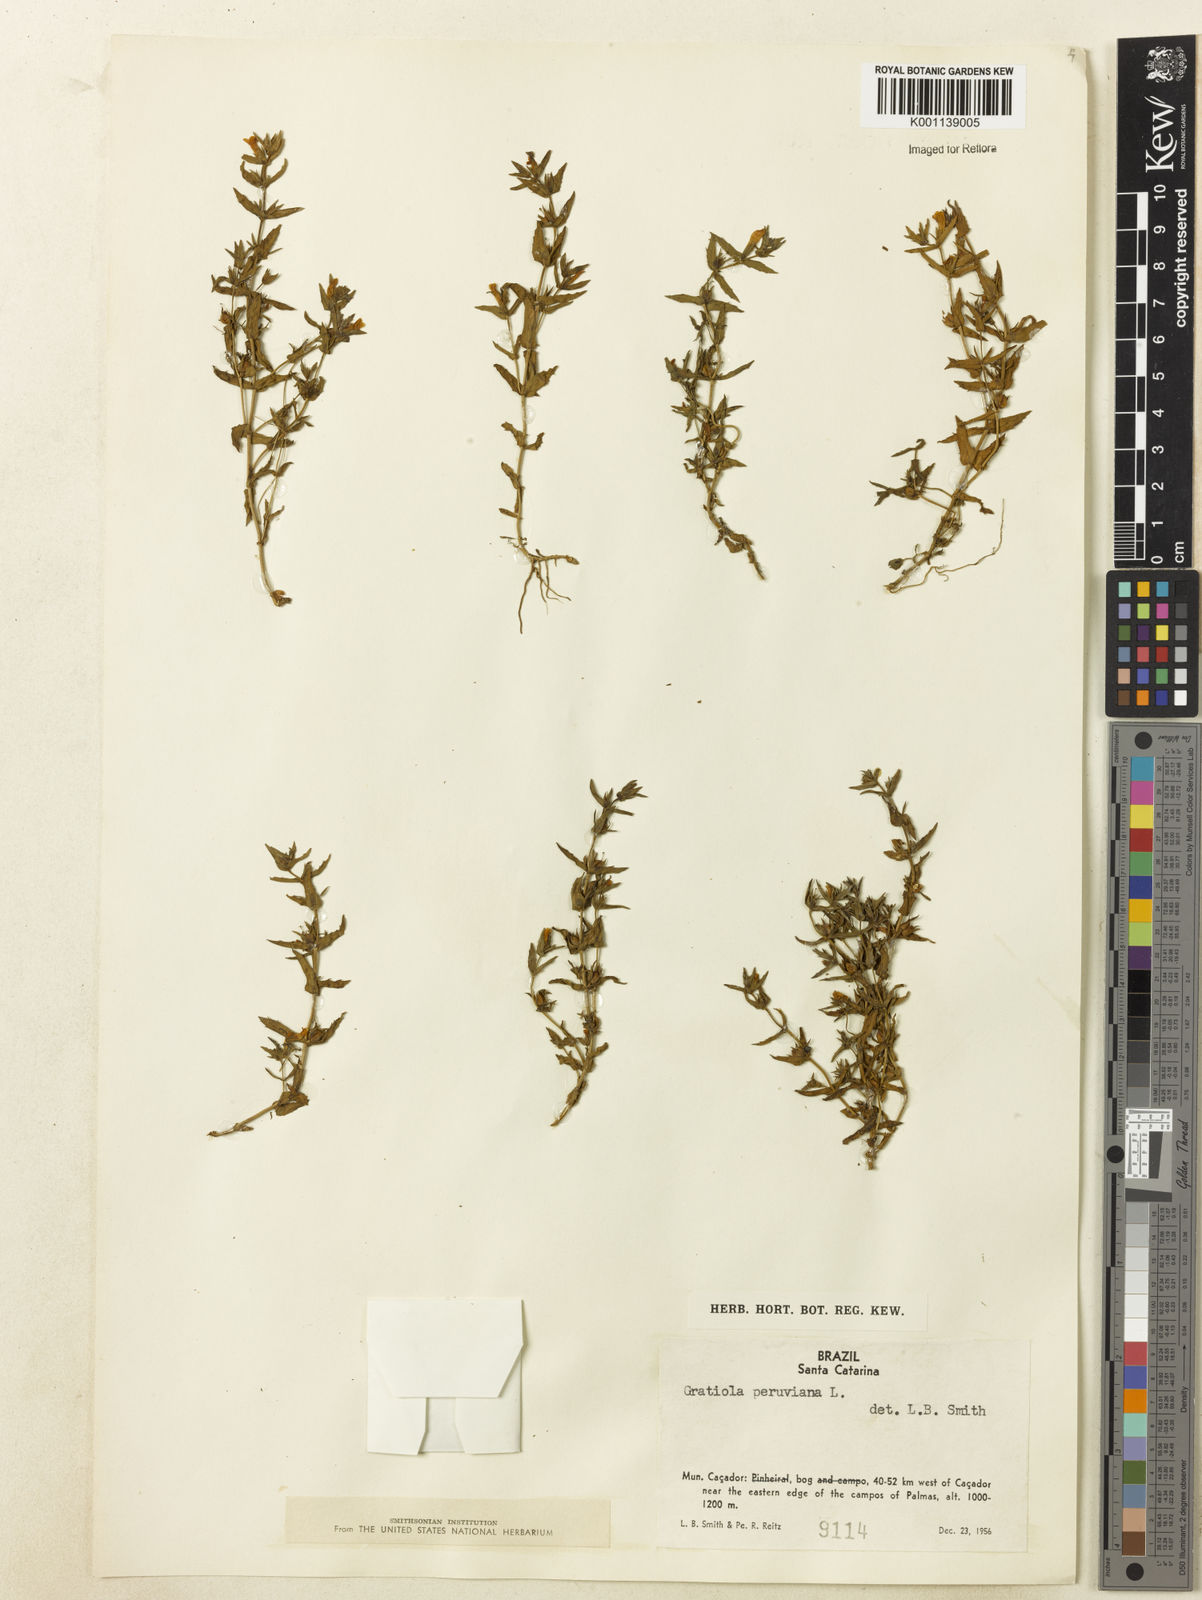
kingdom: Plantae
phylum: Tracheophyta
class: Magnoliopsida
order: Lamiales
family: Plantaginaceae
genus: Gratiola
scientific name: Gratiola peruviana
